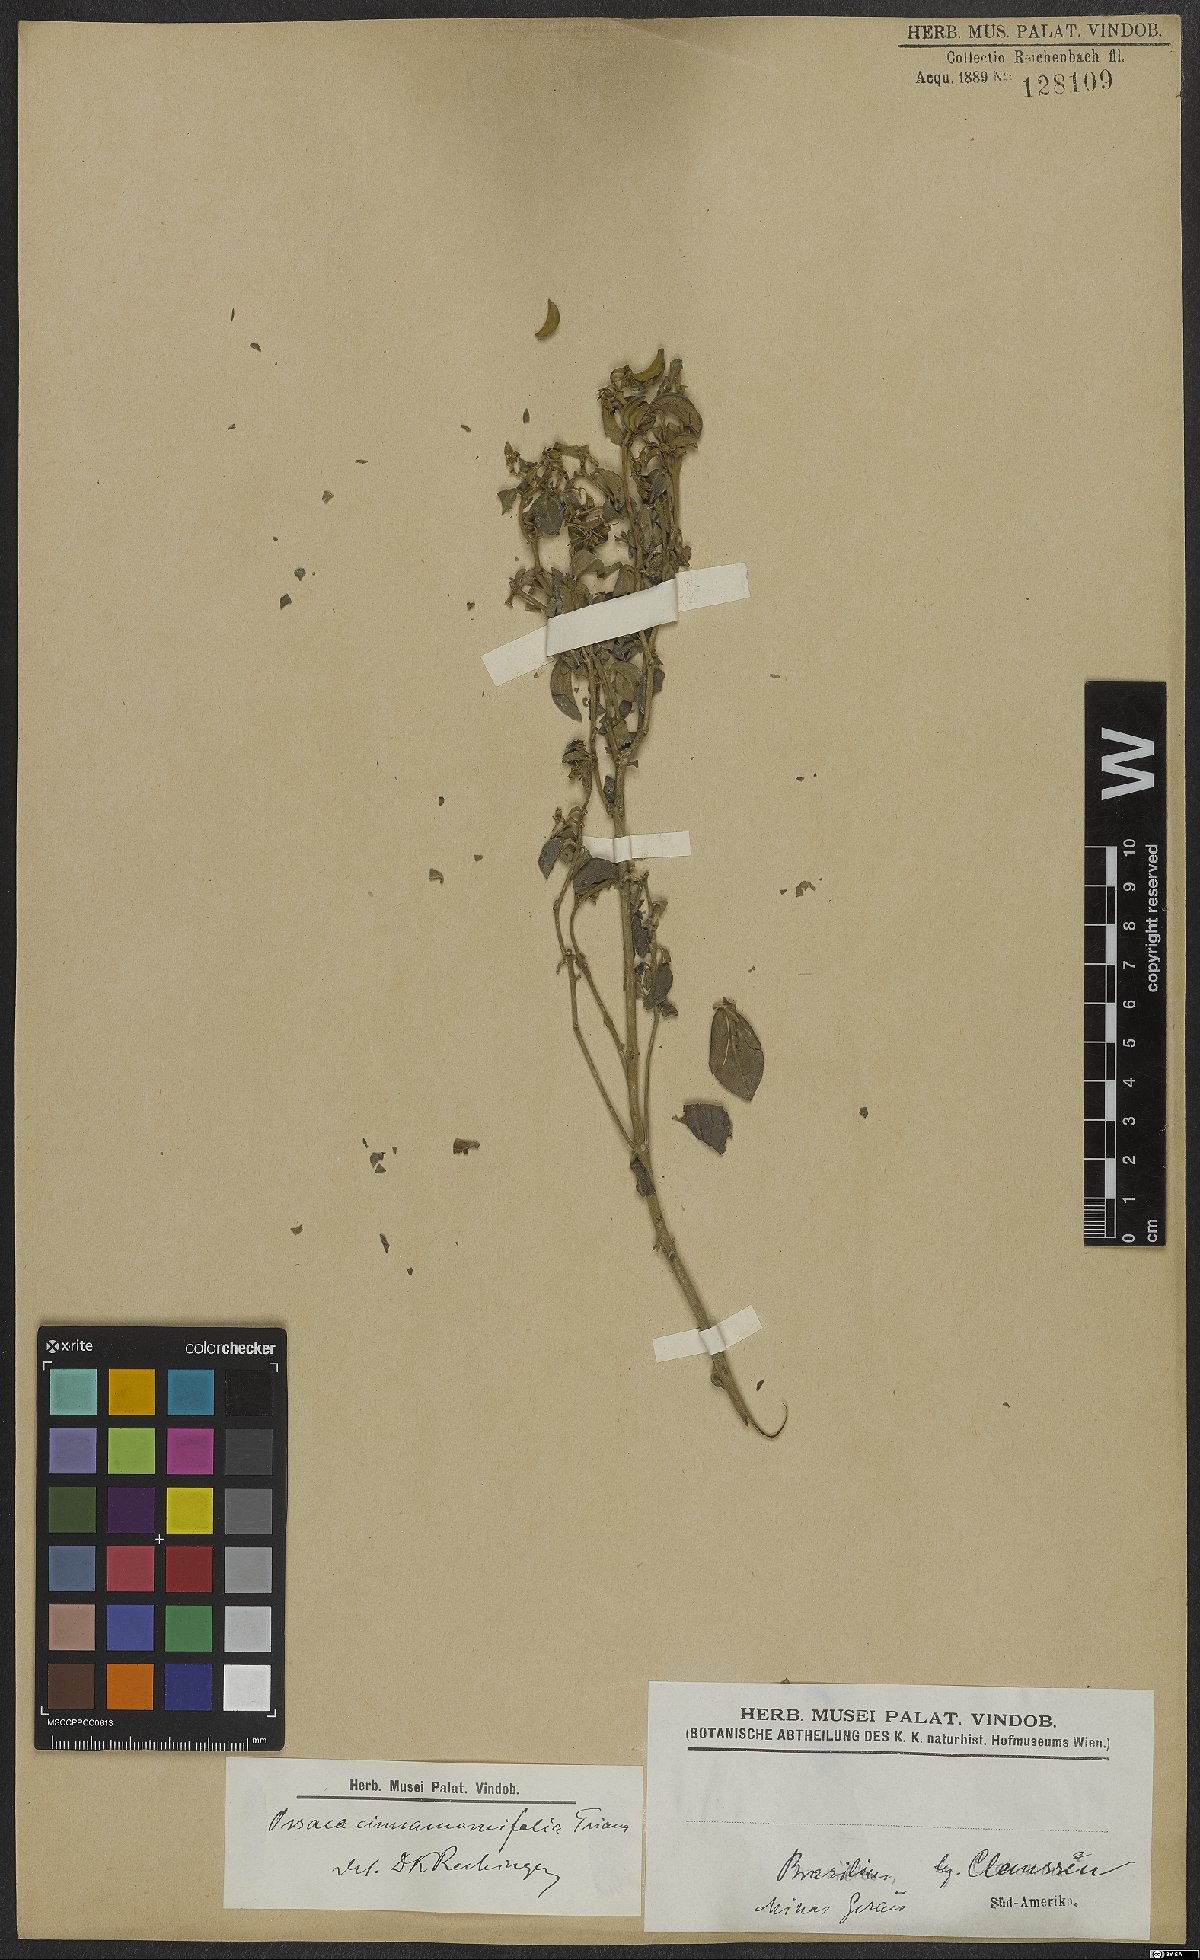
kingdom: Plantae
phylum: Tracheophyta
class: Magnoliopsida
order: Myrtales
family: Melastomataceae
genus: Miconia
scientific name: Miconia leacinnamomifolia
